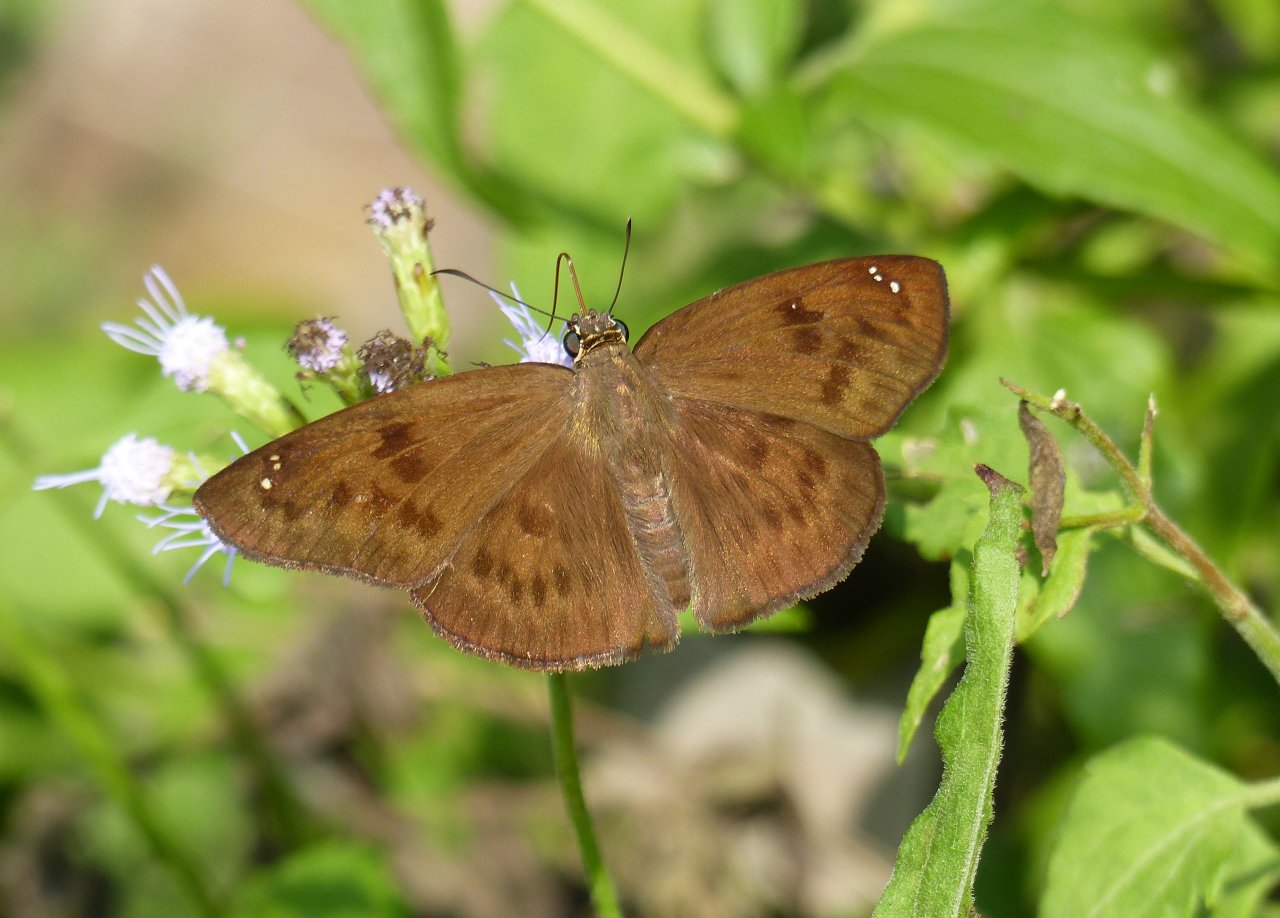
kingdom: Animalia
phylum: Arthropoda
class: Insecta
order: Lepidoptera
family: Hesperiidae
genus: Grais
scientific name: Grais stigmaticus
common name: Hermit Skipper
